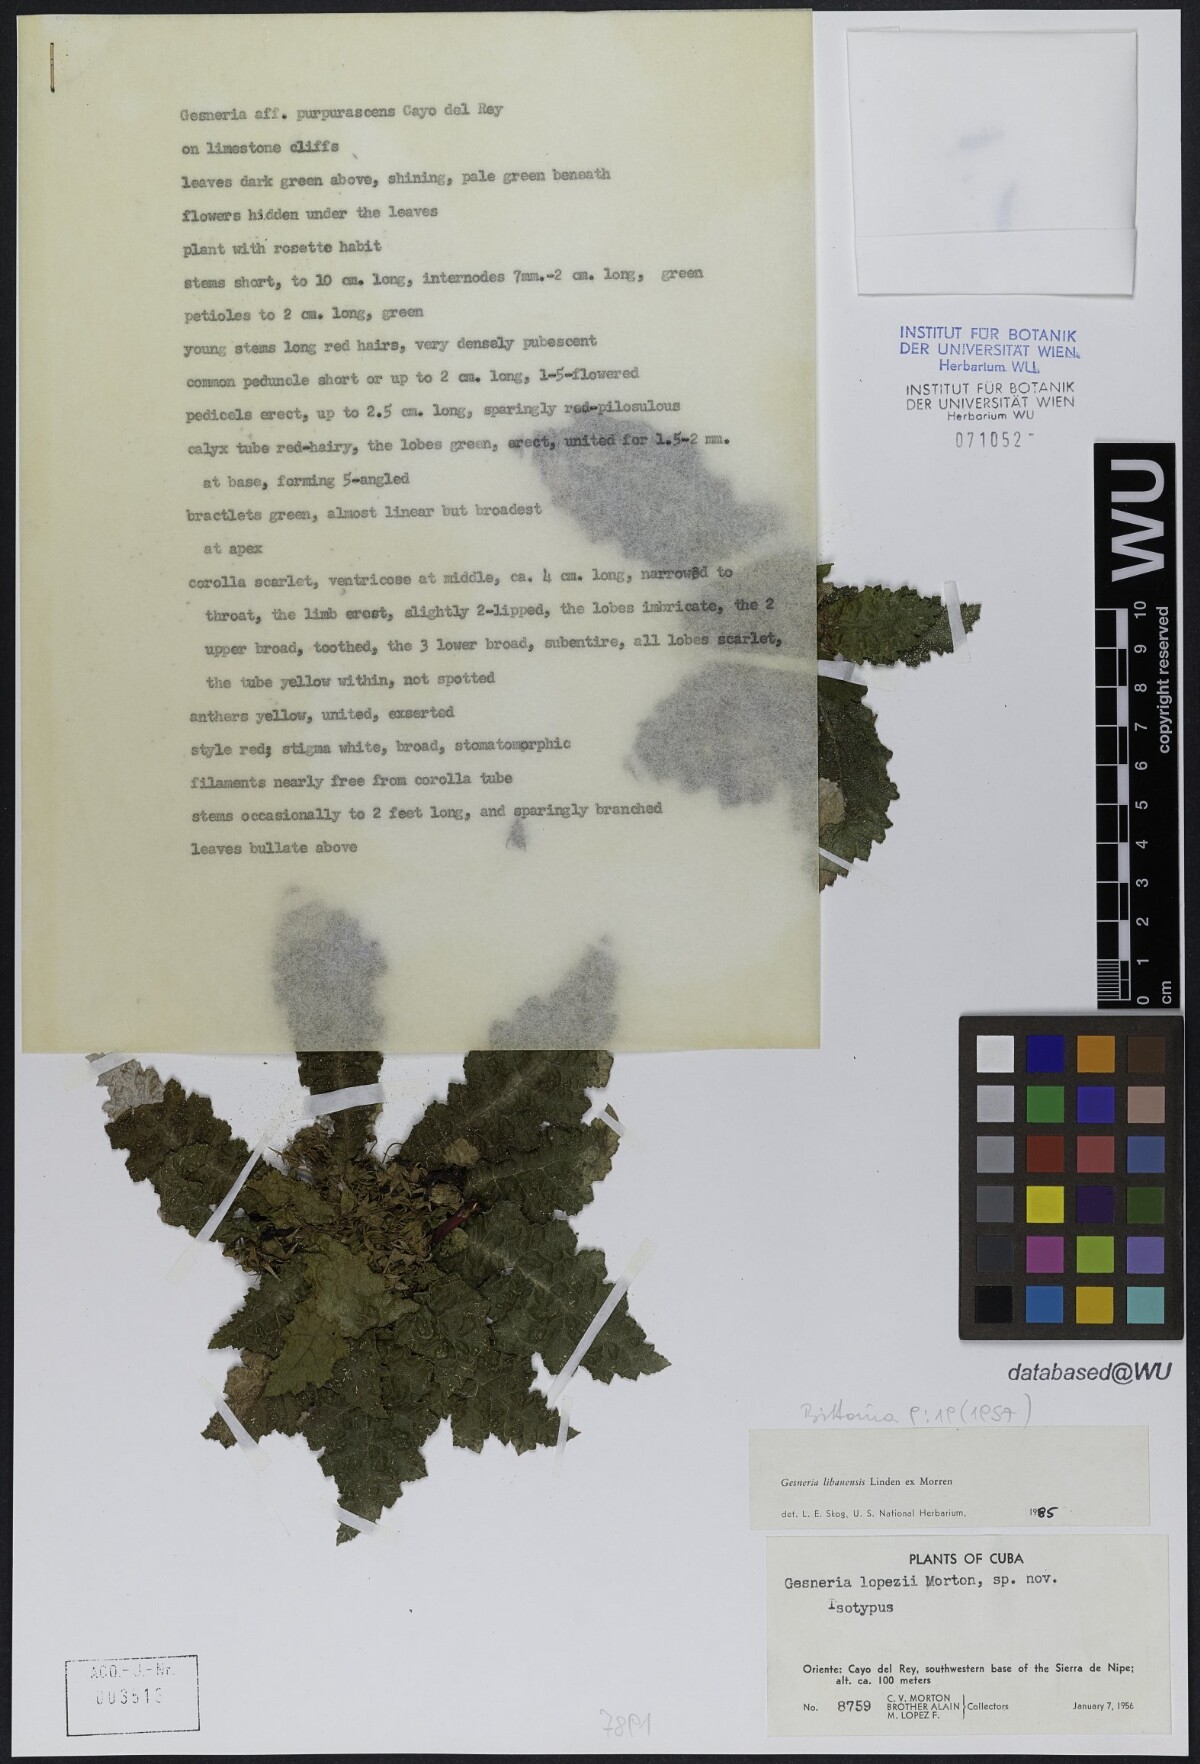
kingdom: Plantae
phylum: Tracheophyta
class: Magnoliopsida
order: Lamiales
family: Gesneriaceae
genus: Gesneria
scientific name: Gesneria libanensis
